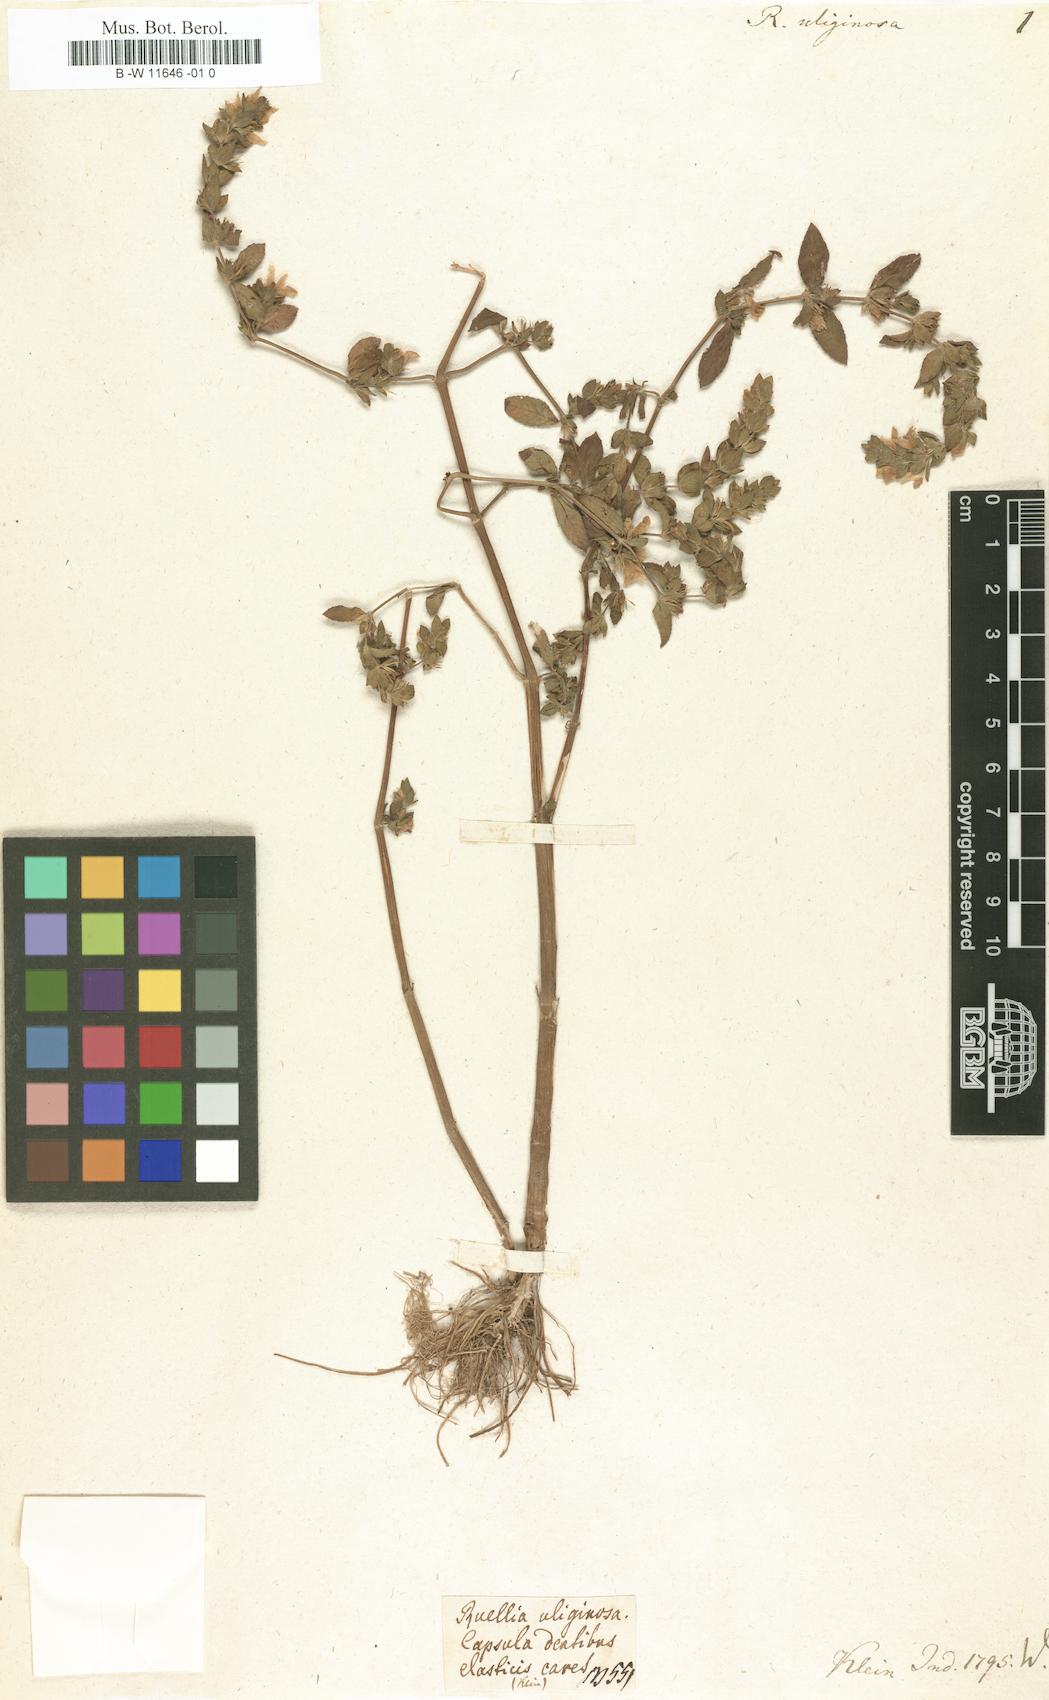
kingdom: Plantae
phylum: Tracheophyta
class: Magnoliopsida
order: Lamiales
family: Acanthaceae
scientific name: Acanthaceae
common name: Acanthaceae
